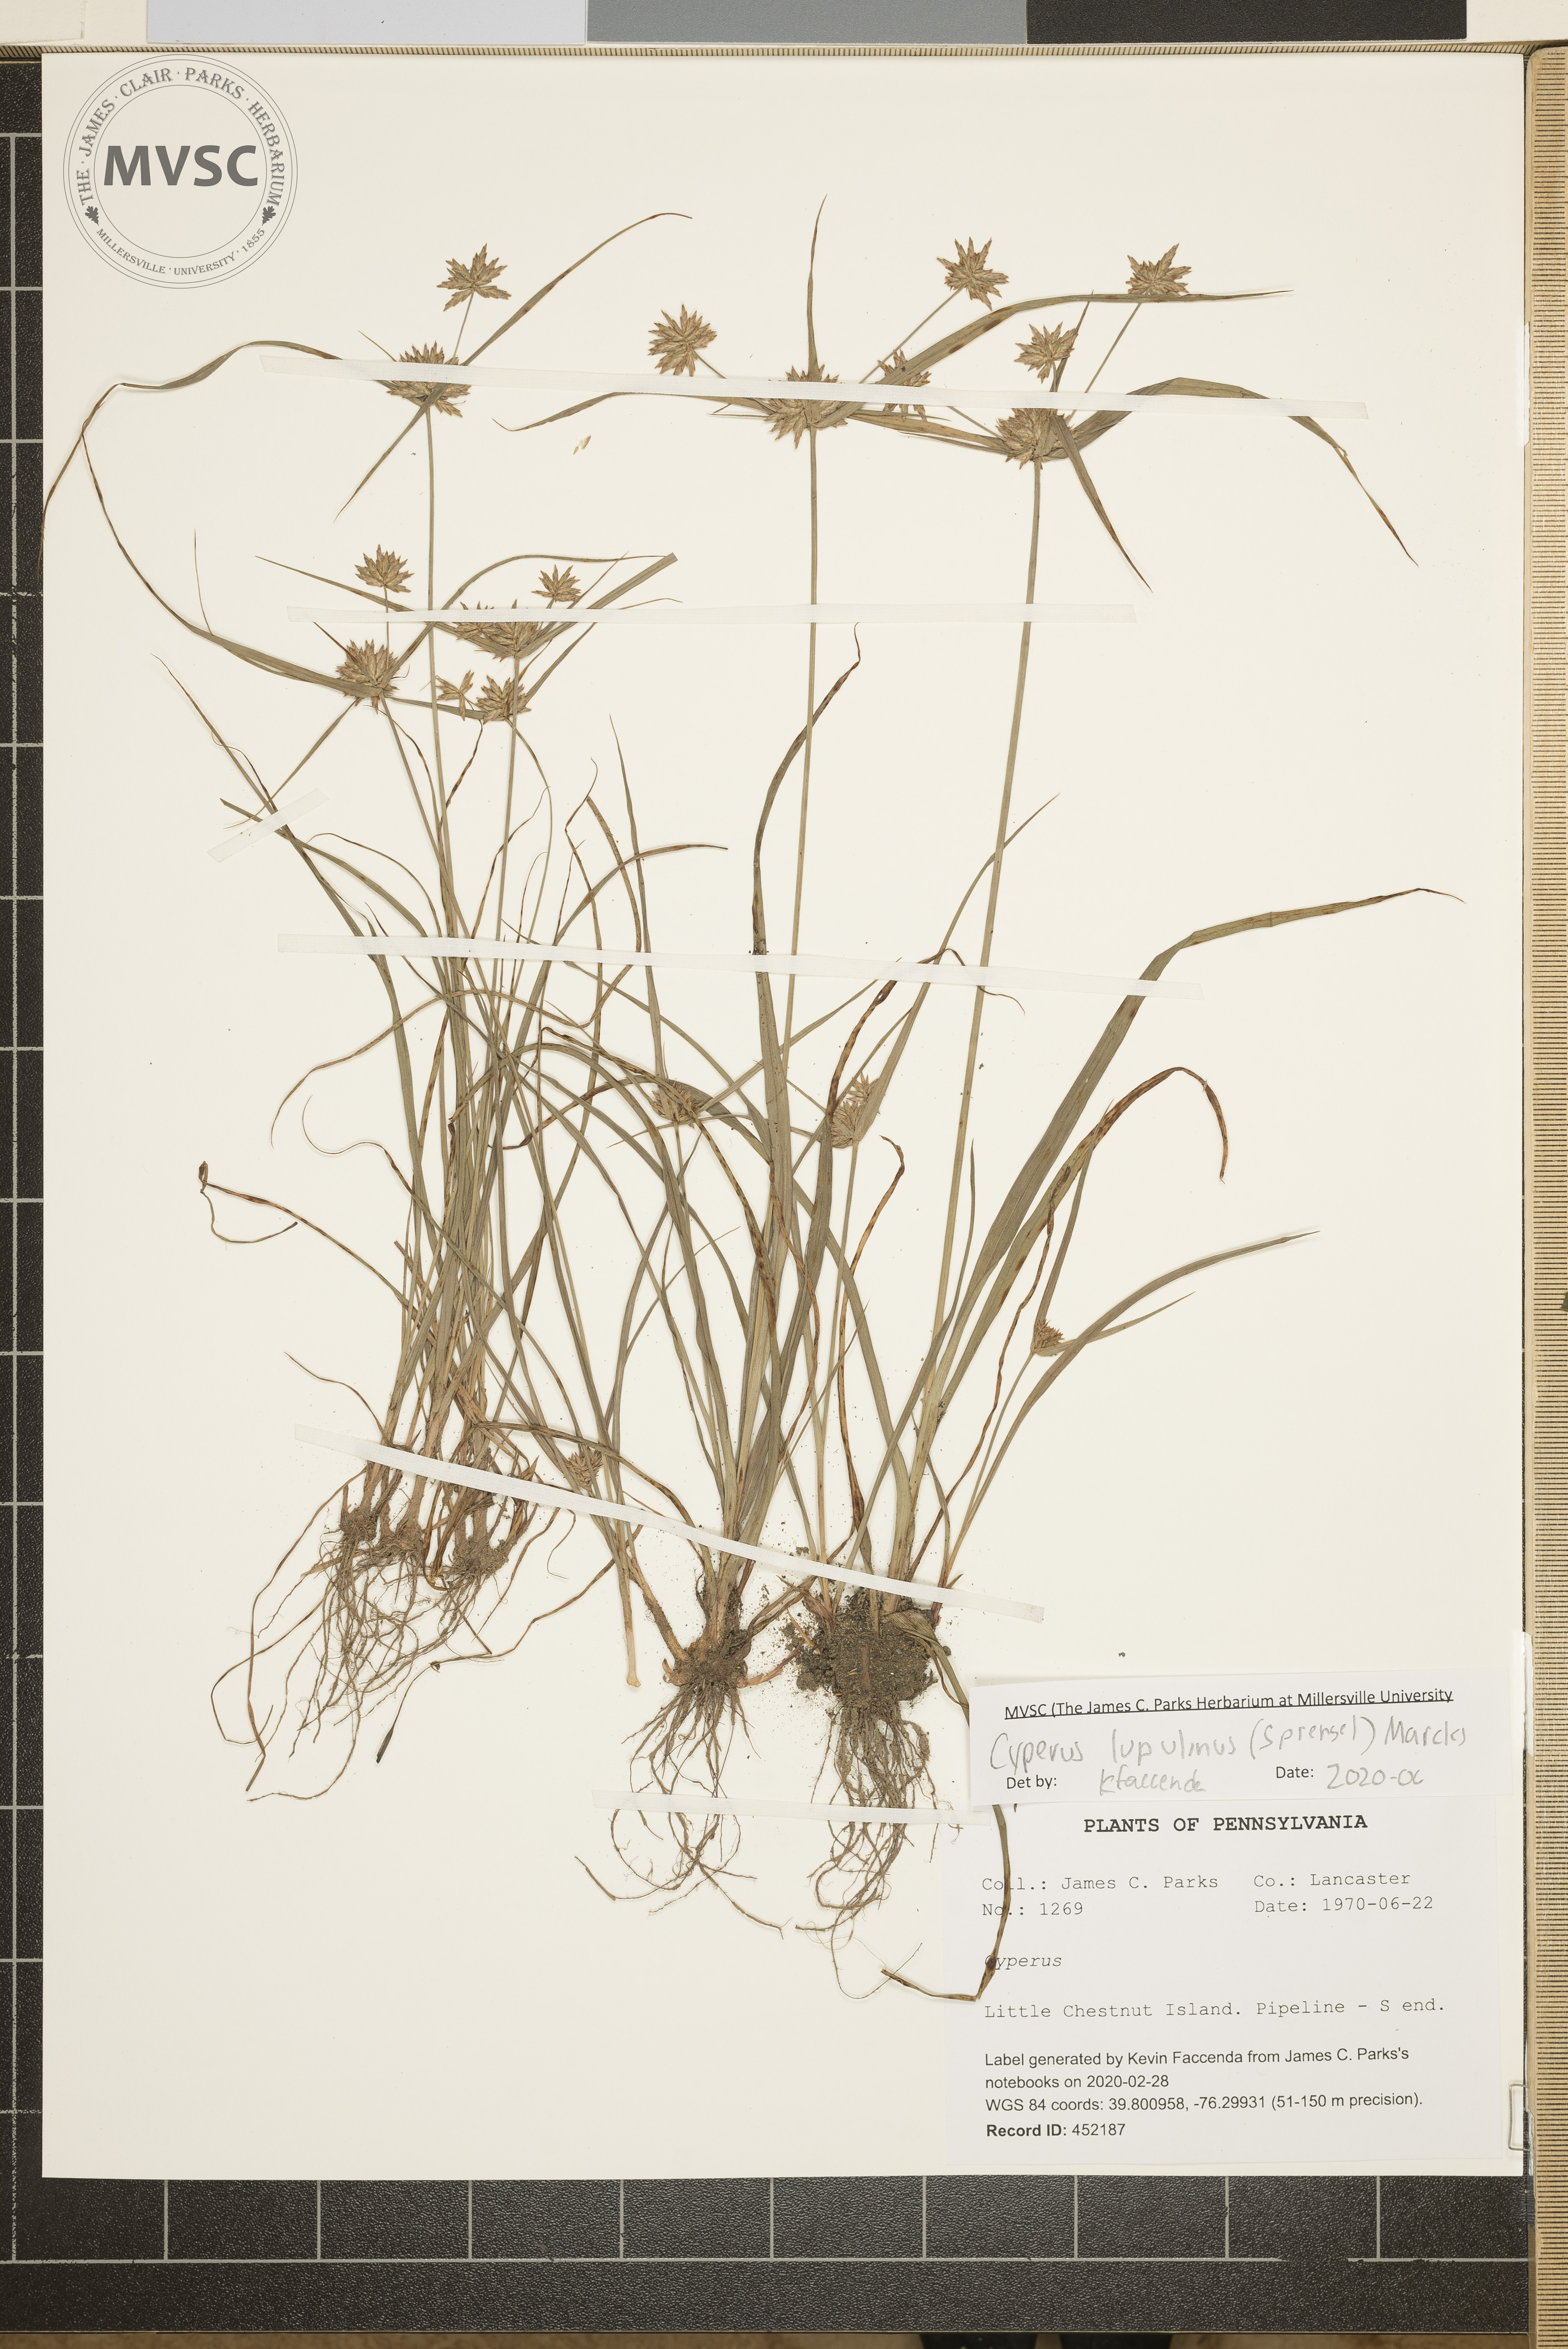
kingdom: Plantae
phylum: Tracheophyta
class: Liliopsida
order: Poales
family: Cyperaceae
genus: Cyperus
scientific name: Cyperus lupulinus
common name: Great plains flatsedge
